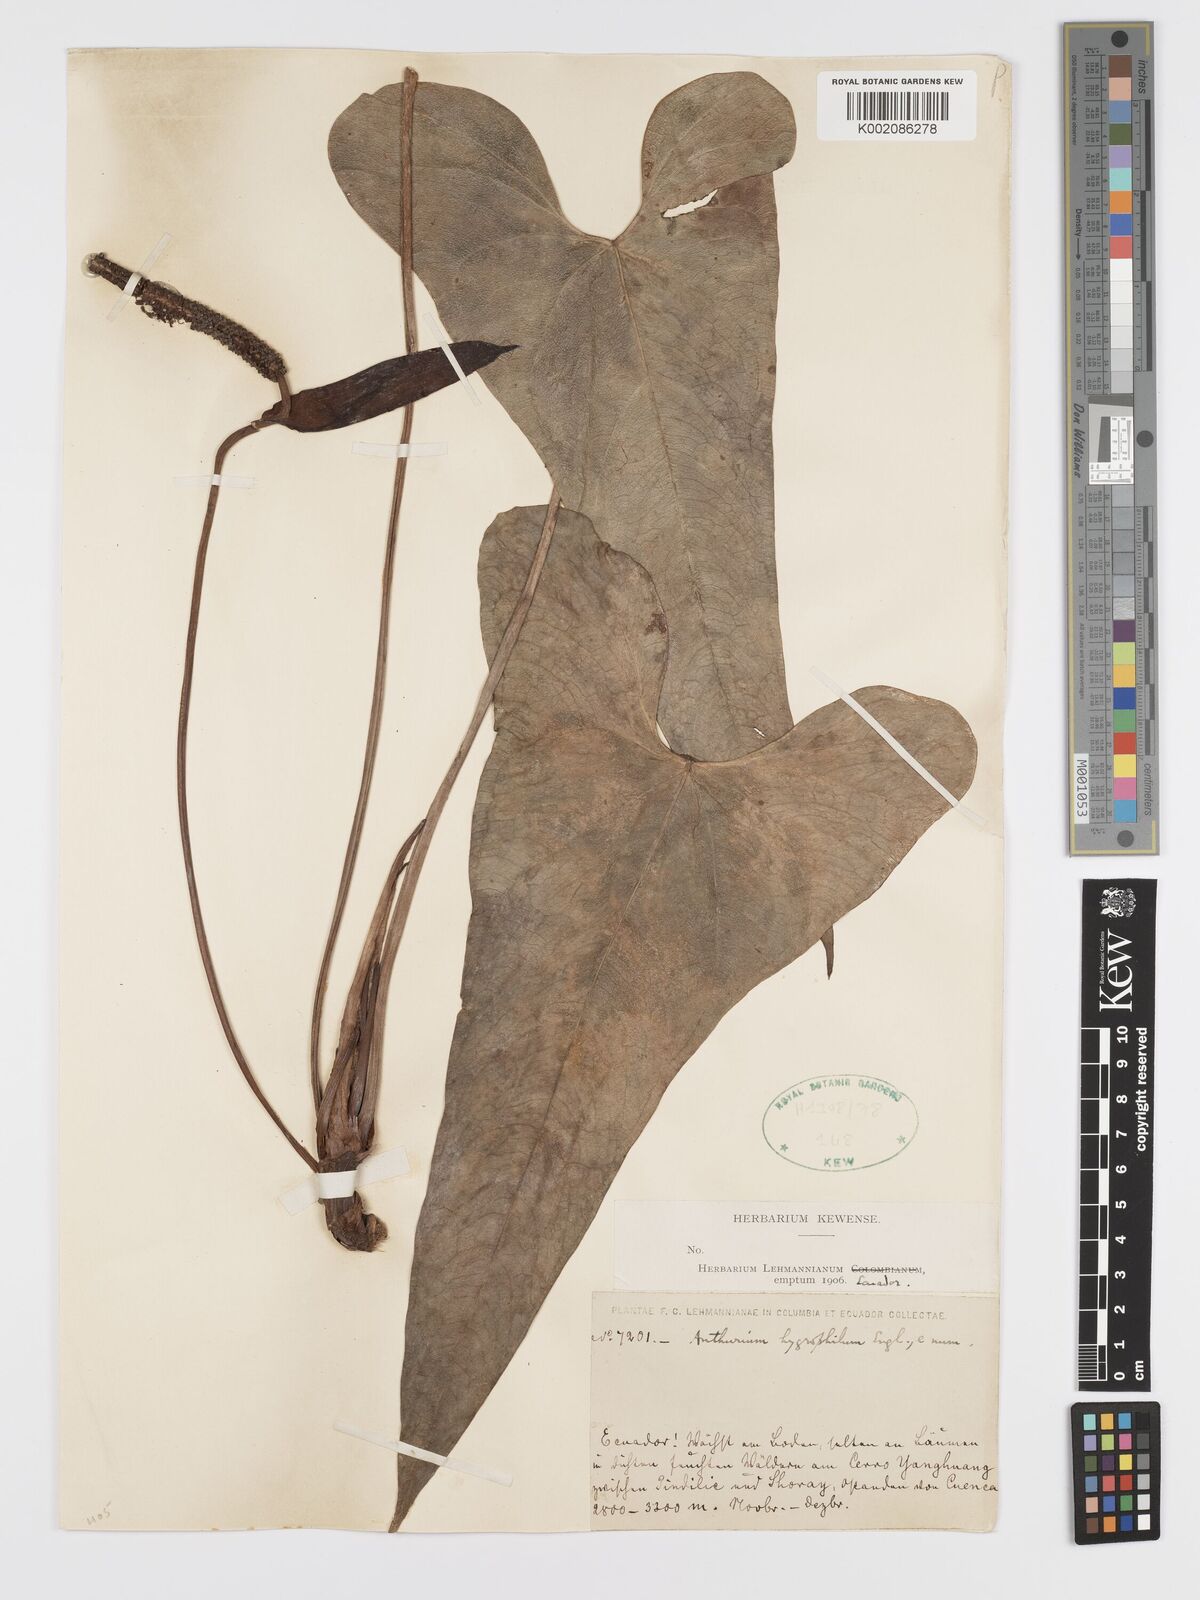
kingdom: Plantae
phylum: Tracheophyta
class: Liliopsida
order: Alismatales
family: Araceae
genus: Anthurium
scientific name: Anthurium hygrophilum
